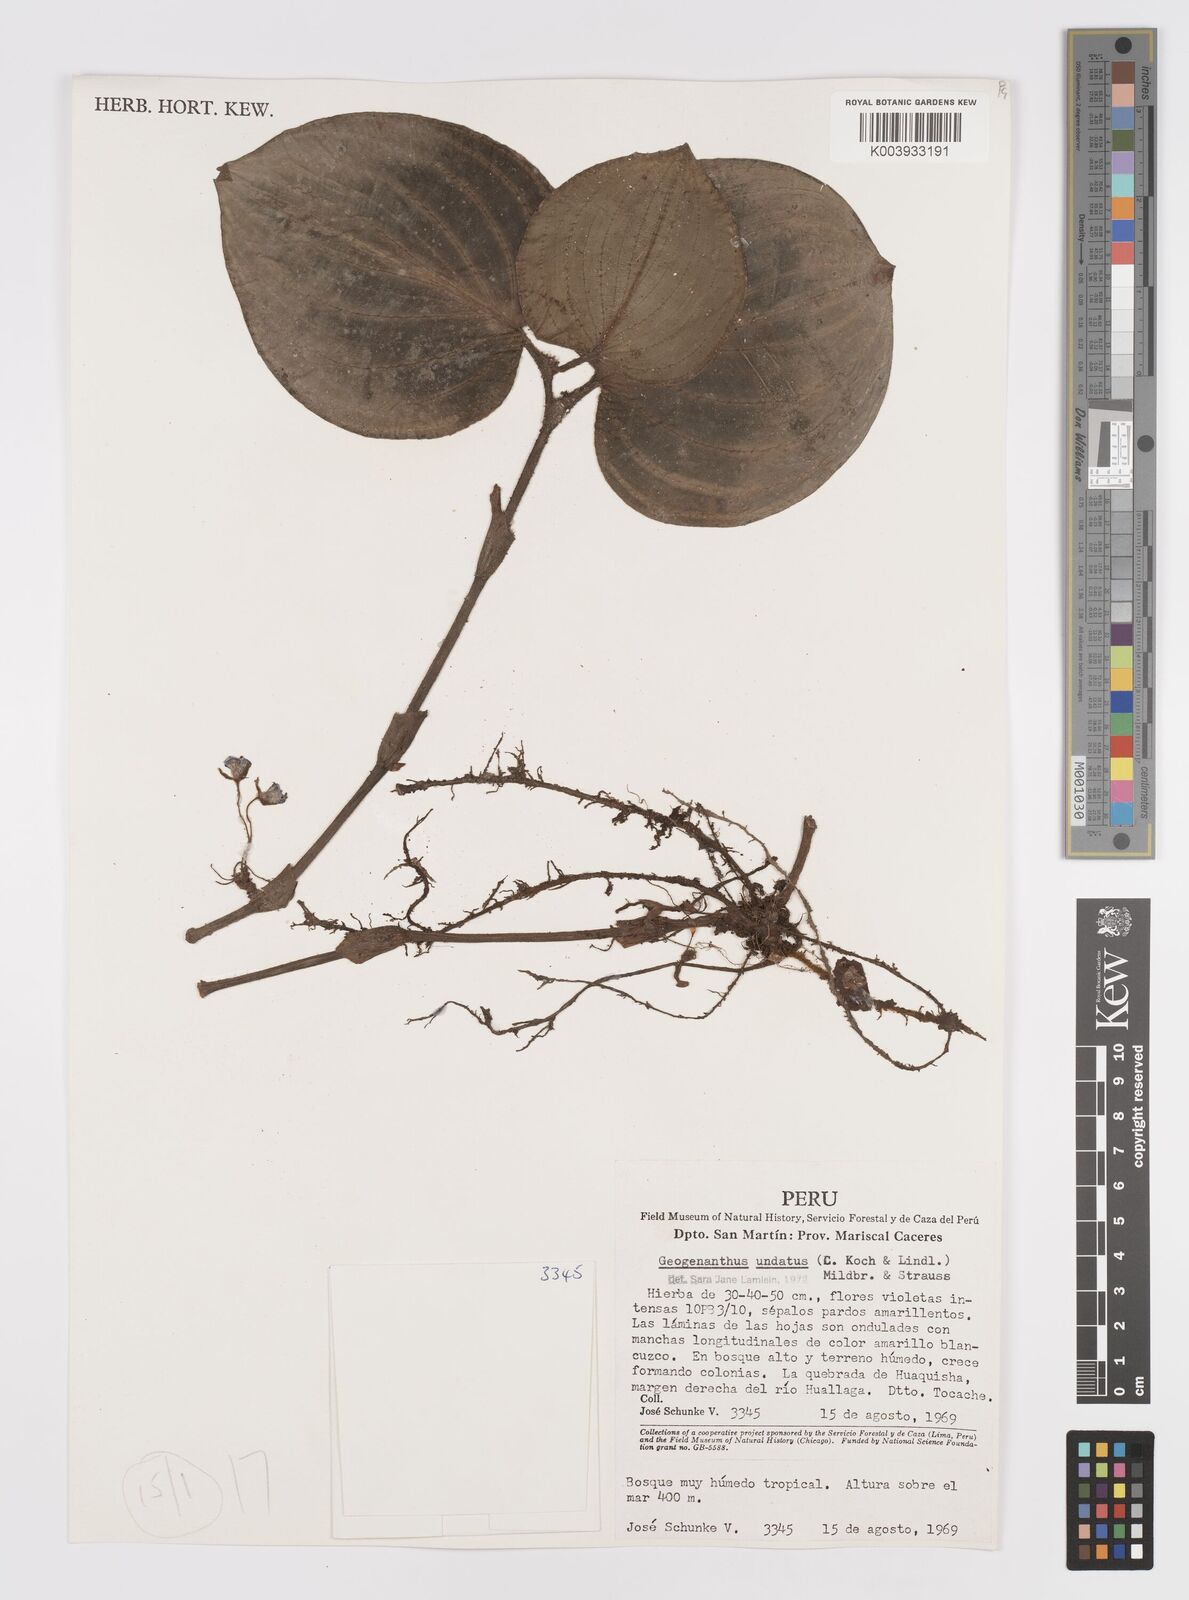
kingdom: Plantae
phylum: Tracheophyta
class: Liliopsida
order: Commelinales
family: Commelinaceae
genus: Geogenanthus
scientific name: Geogenanthus poeppigii
